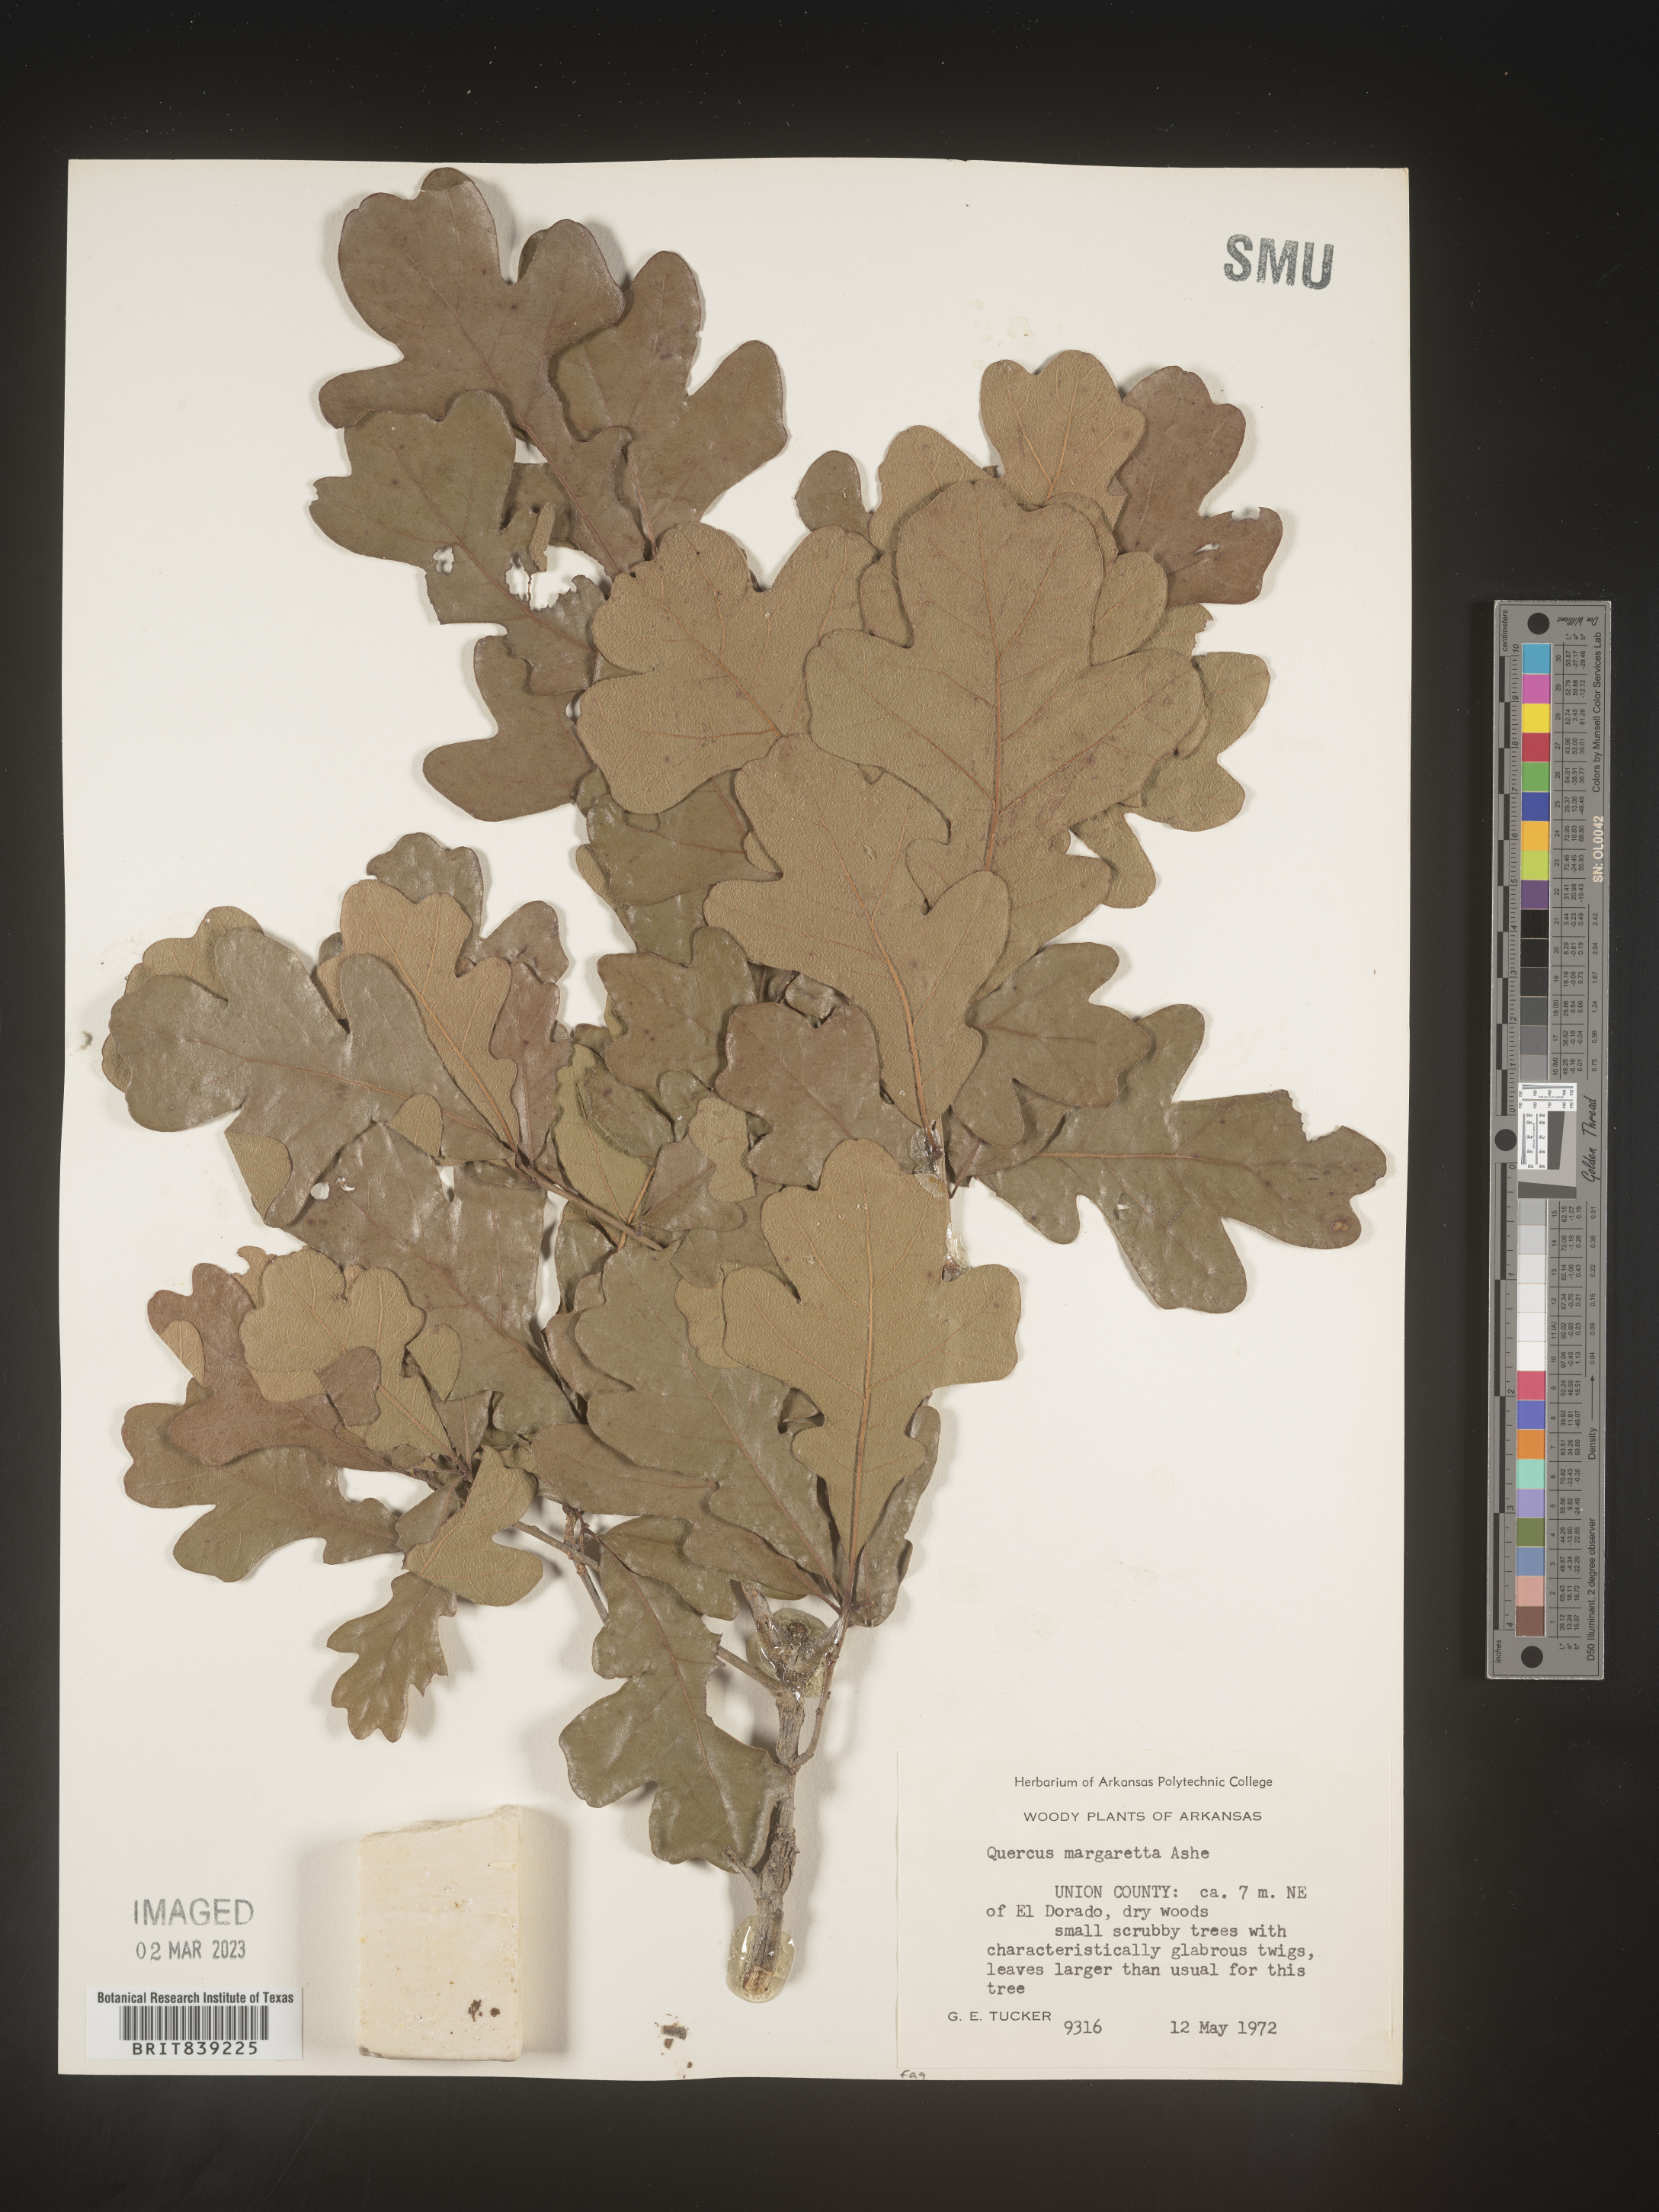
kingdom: Plantae
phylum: Tracheophyta
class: Magnoliopsida
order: Fagales
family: Fagaceae
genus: Quercus
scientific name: Quercus margaretta
